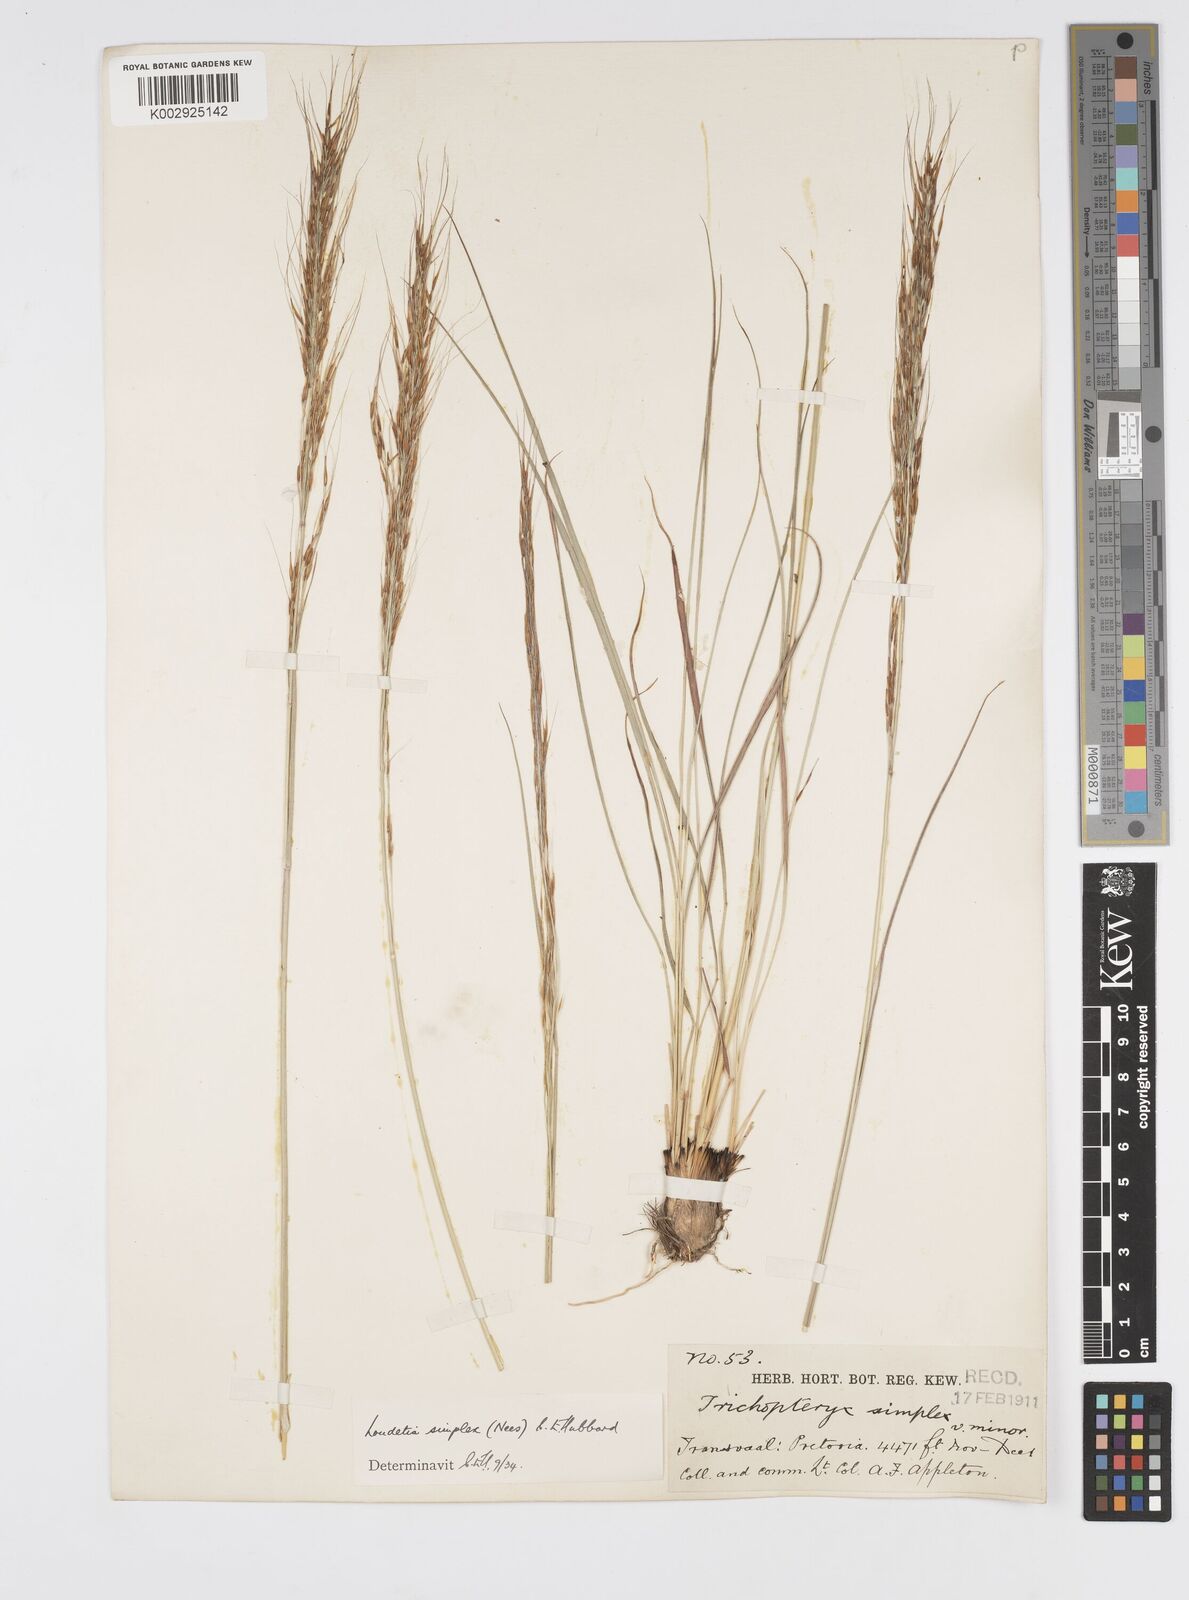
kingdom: Plantae
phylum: Tracheophyta
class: Liliopsida
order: Poales
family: Poaceae
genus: Loudetia
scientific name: Loudetia simplex
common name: Common russet grass
